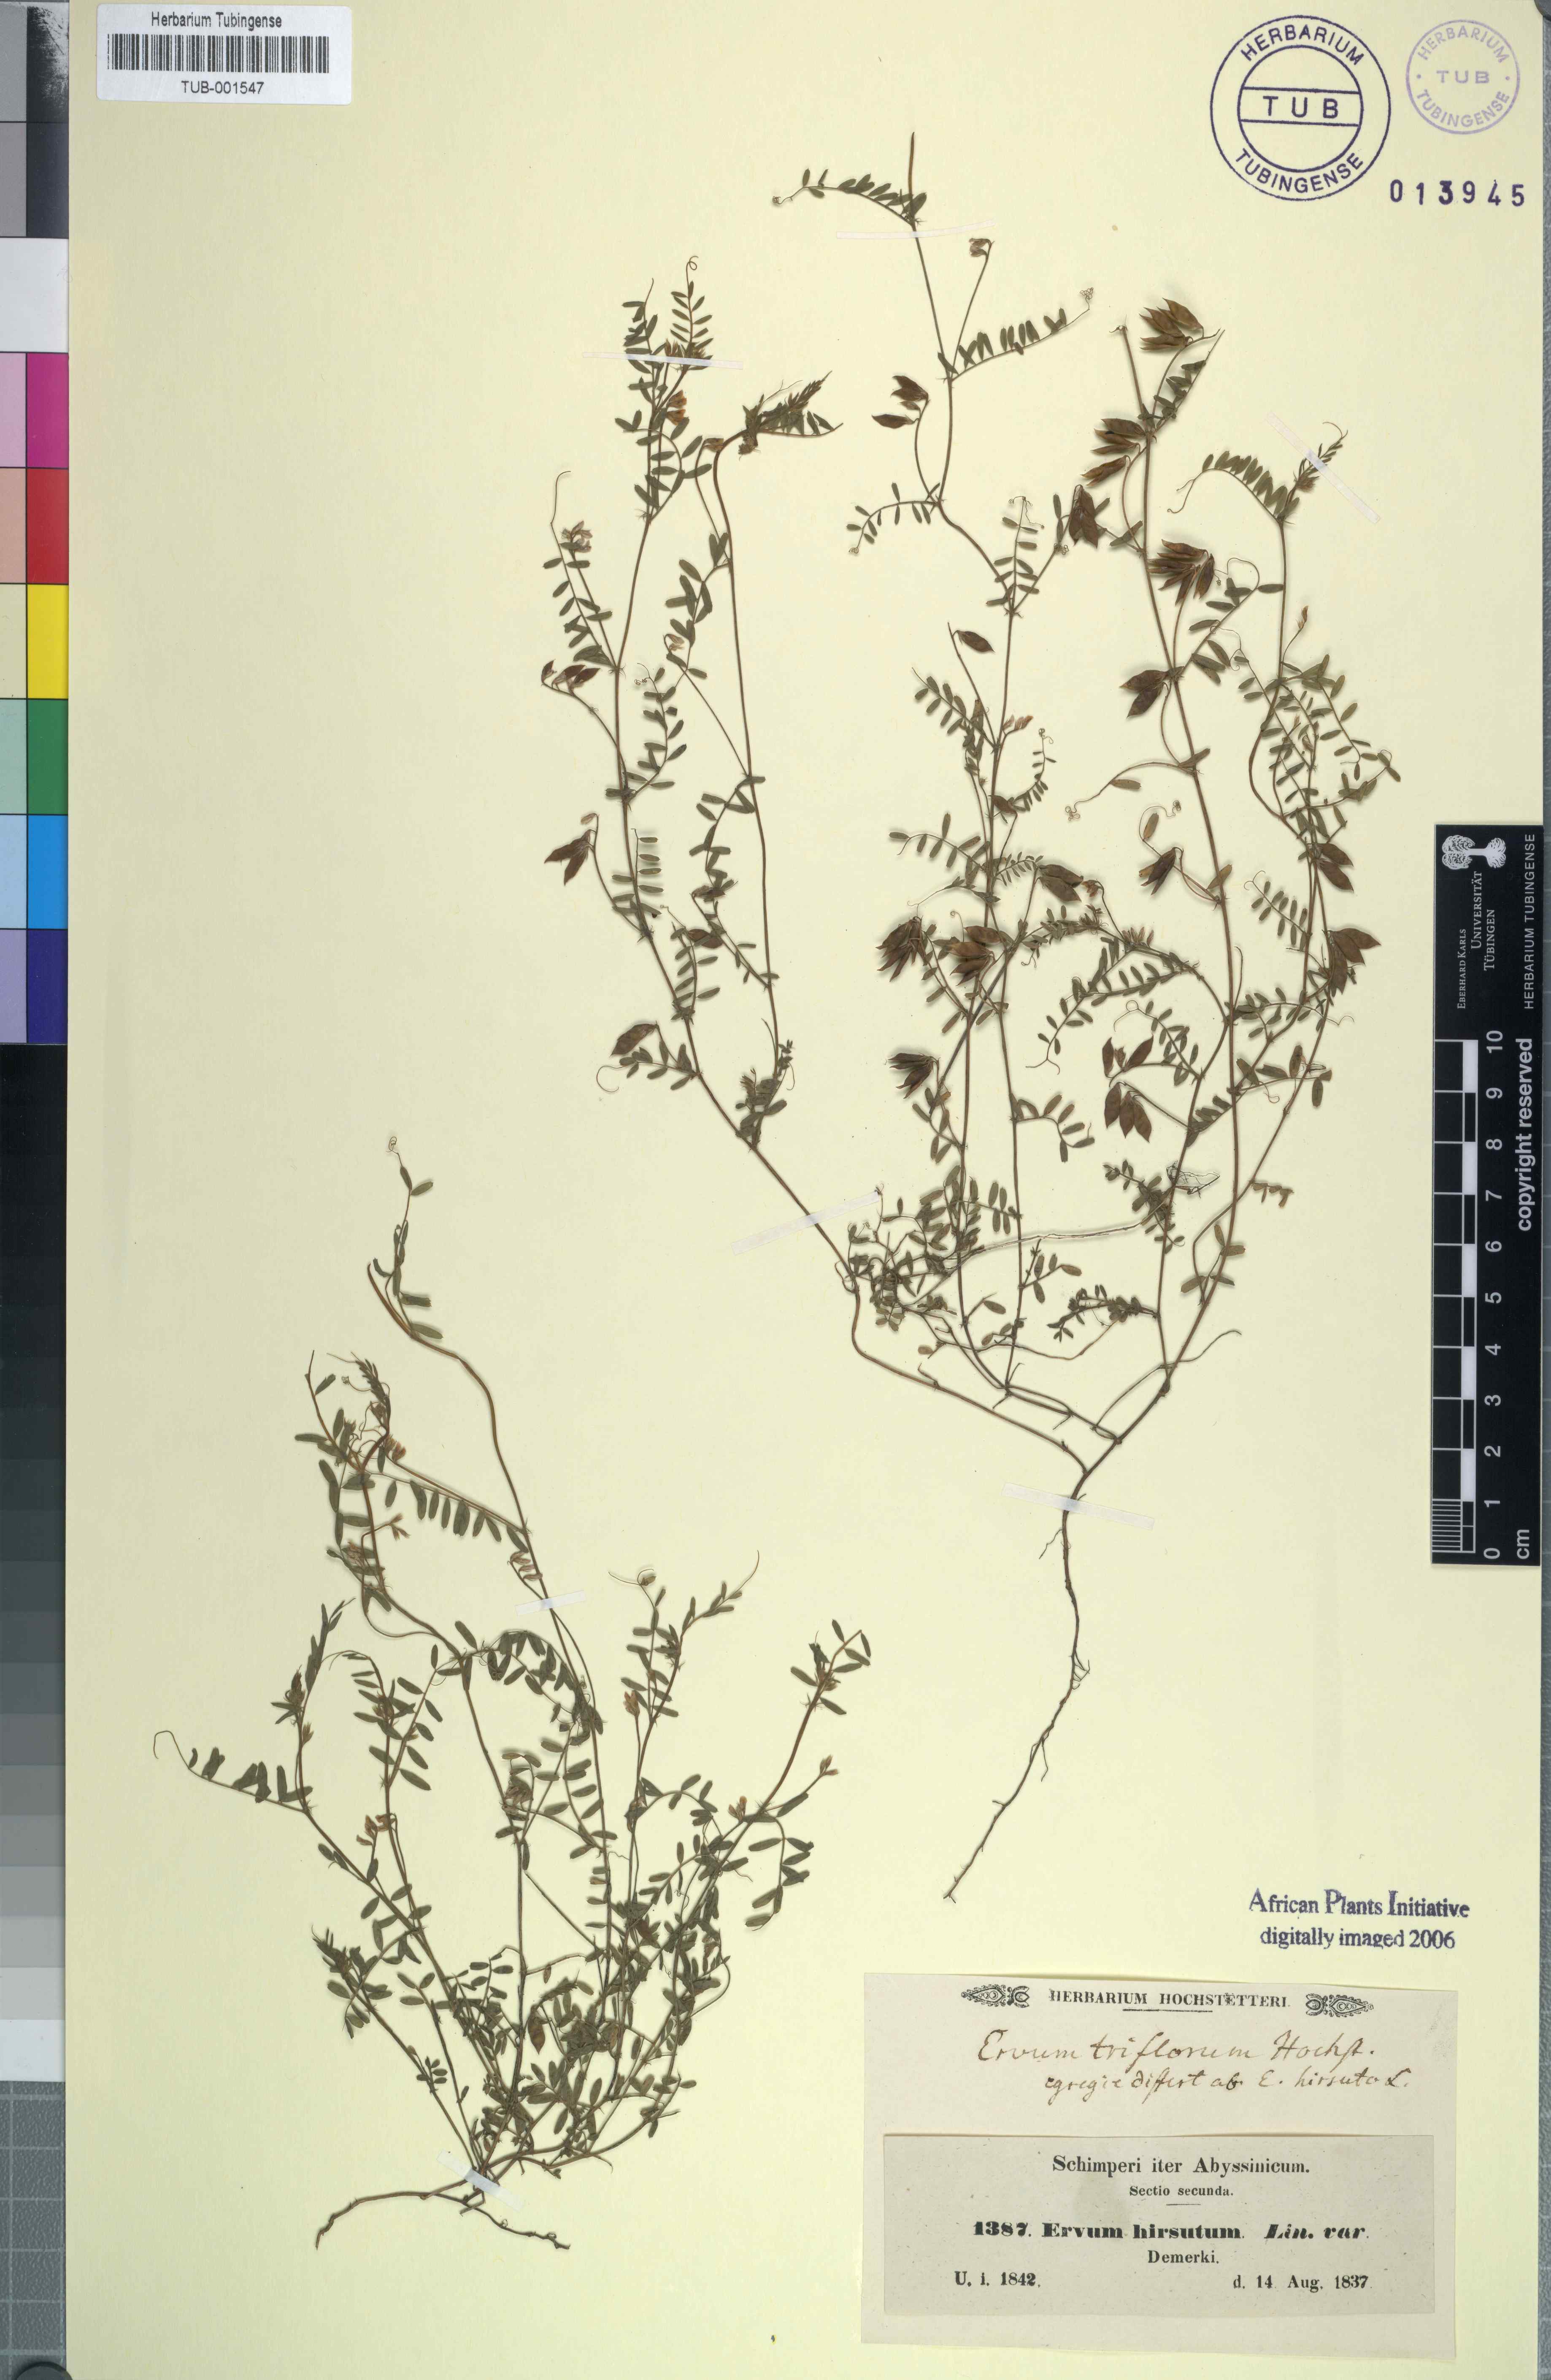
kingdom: Plantae
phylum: Tracheophyta
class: Magnoliopsida
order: Fabales
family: Fabaceae
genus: Vicia
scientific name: Vicia hirsuta
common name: Tiny vetch
